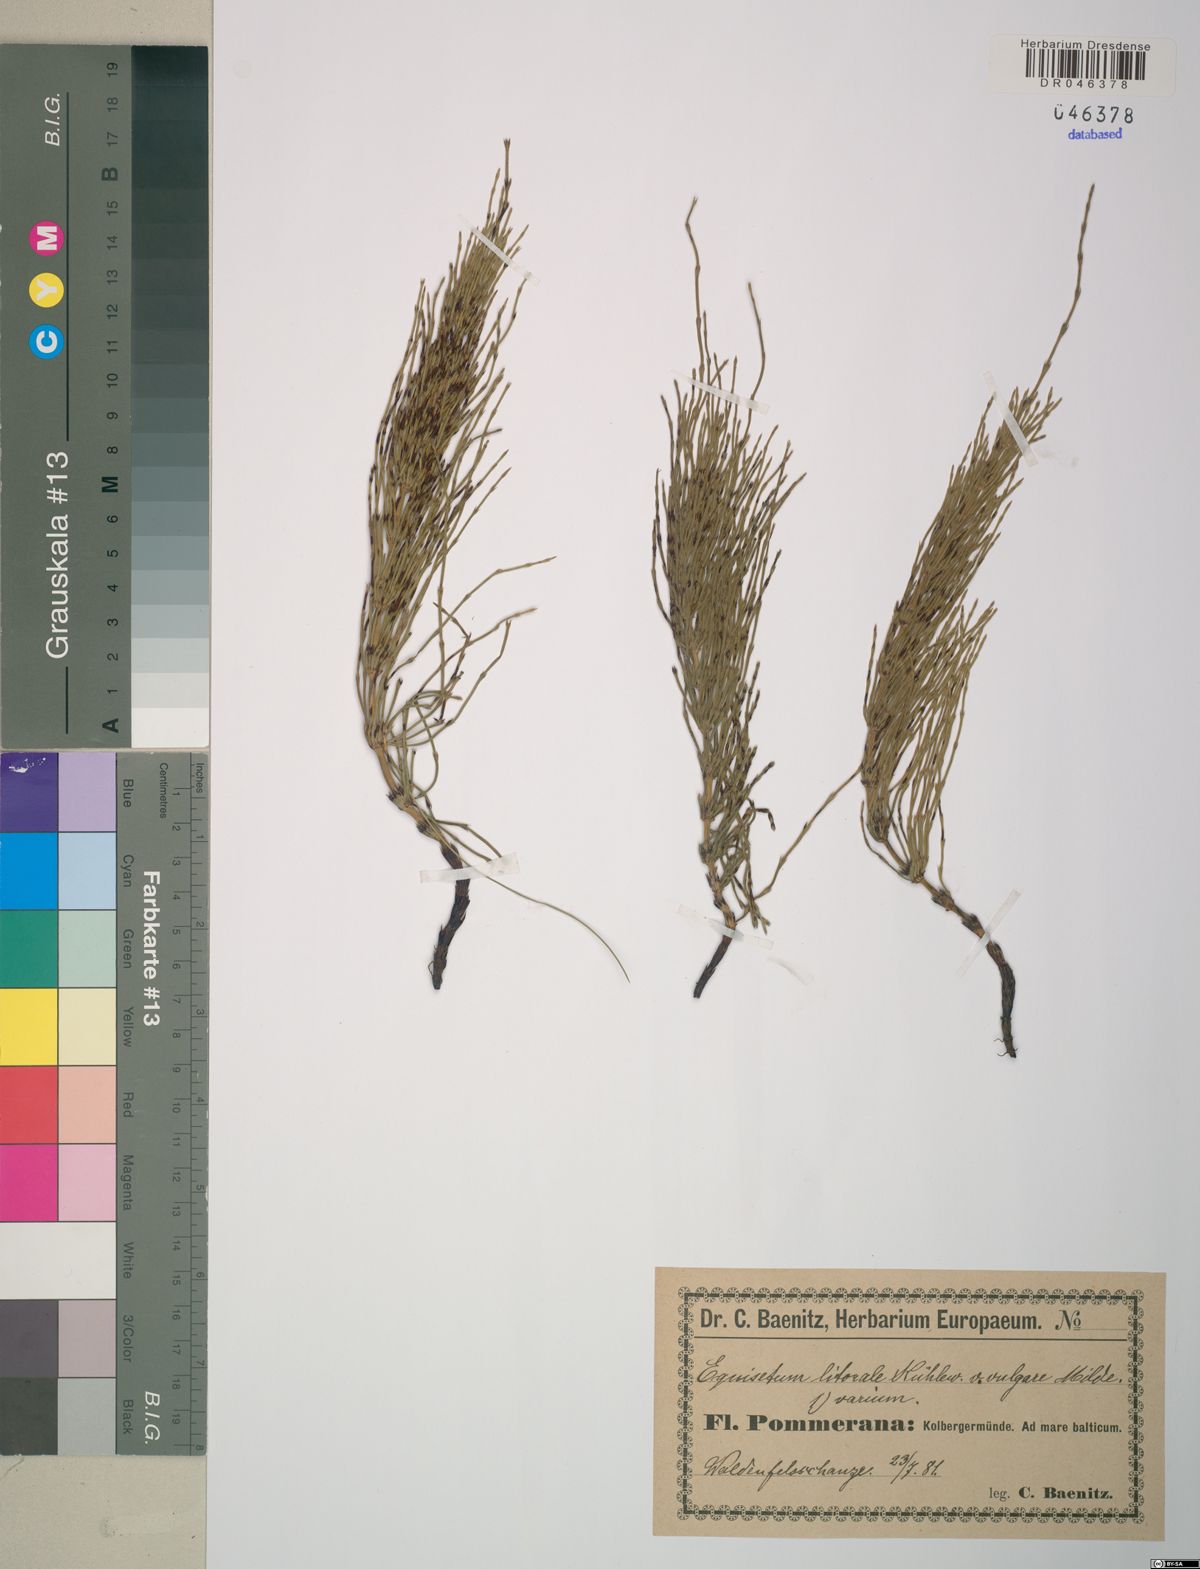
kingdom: Plantae
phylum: Tracheophyta
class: Polypodiopsida
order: Equisetales
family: Equisetaceae
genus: Equisetum
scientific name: Equisetum litorale
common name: Littoral horsetail
